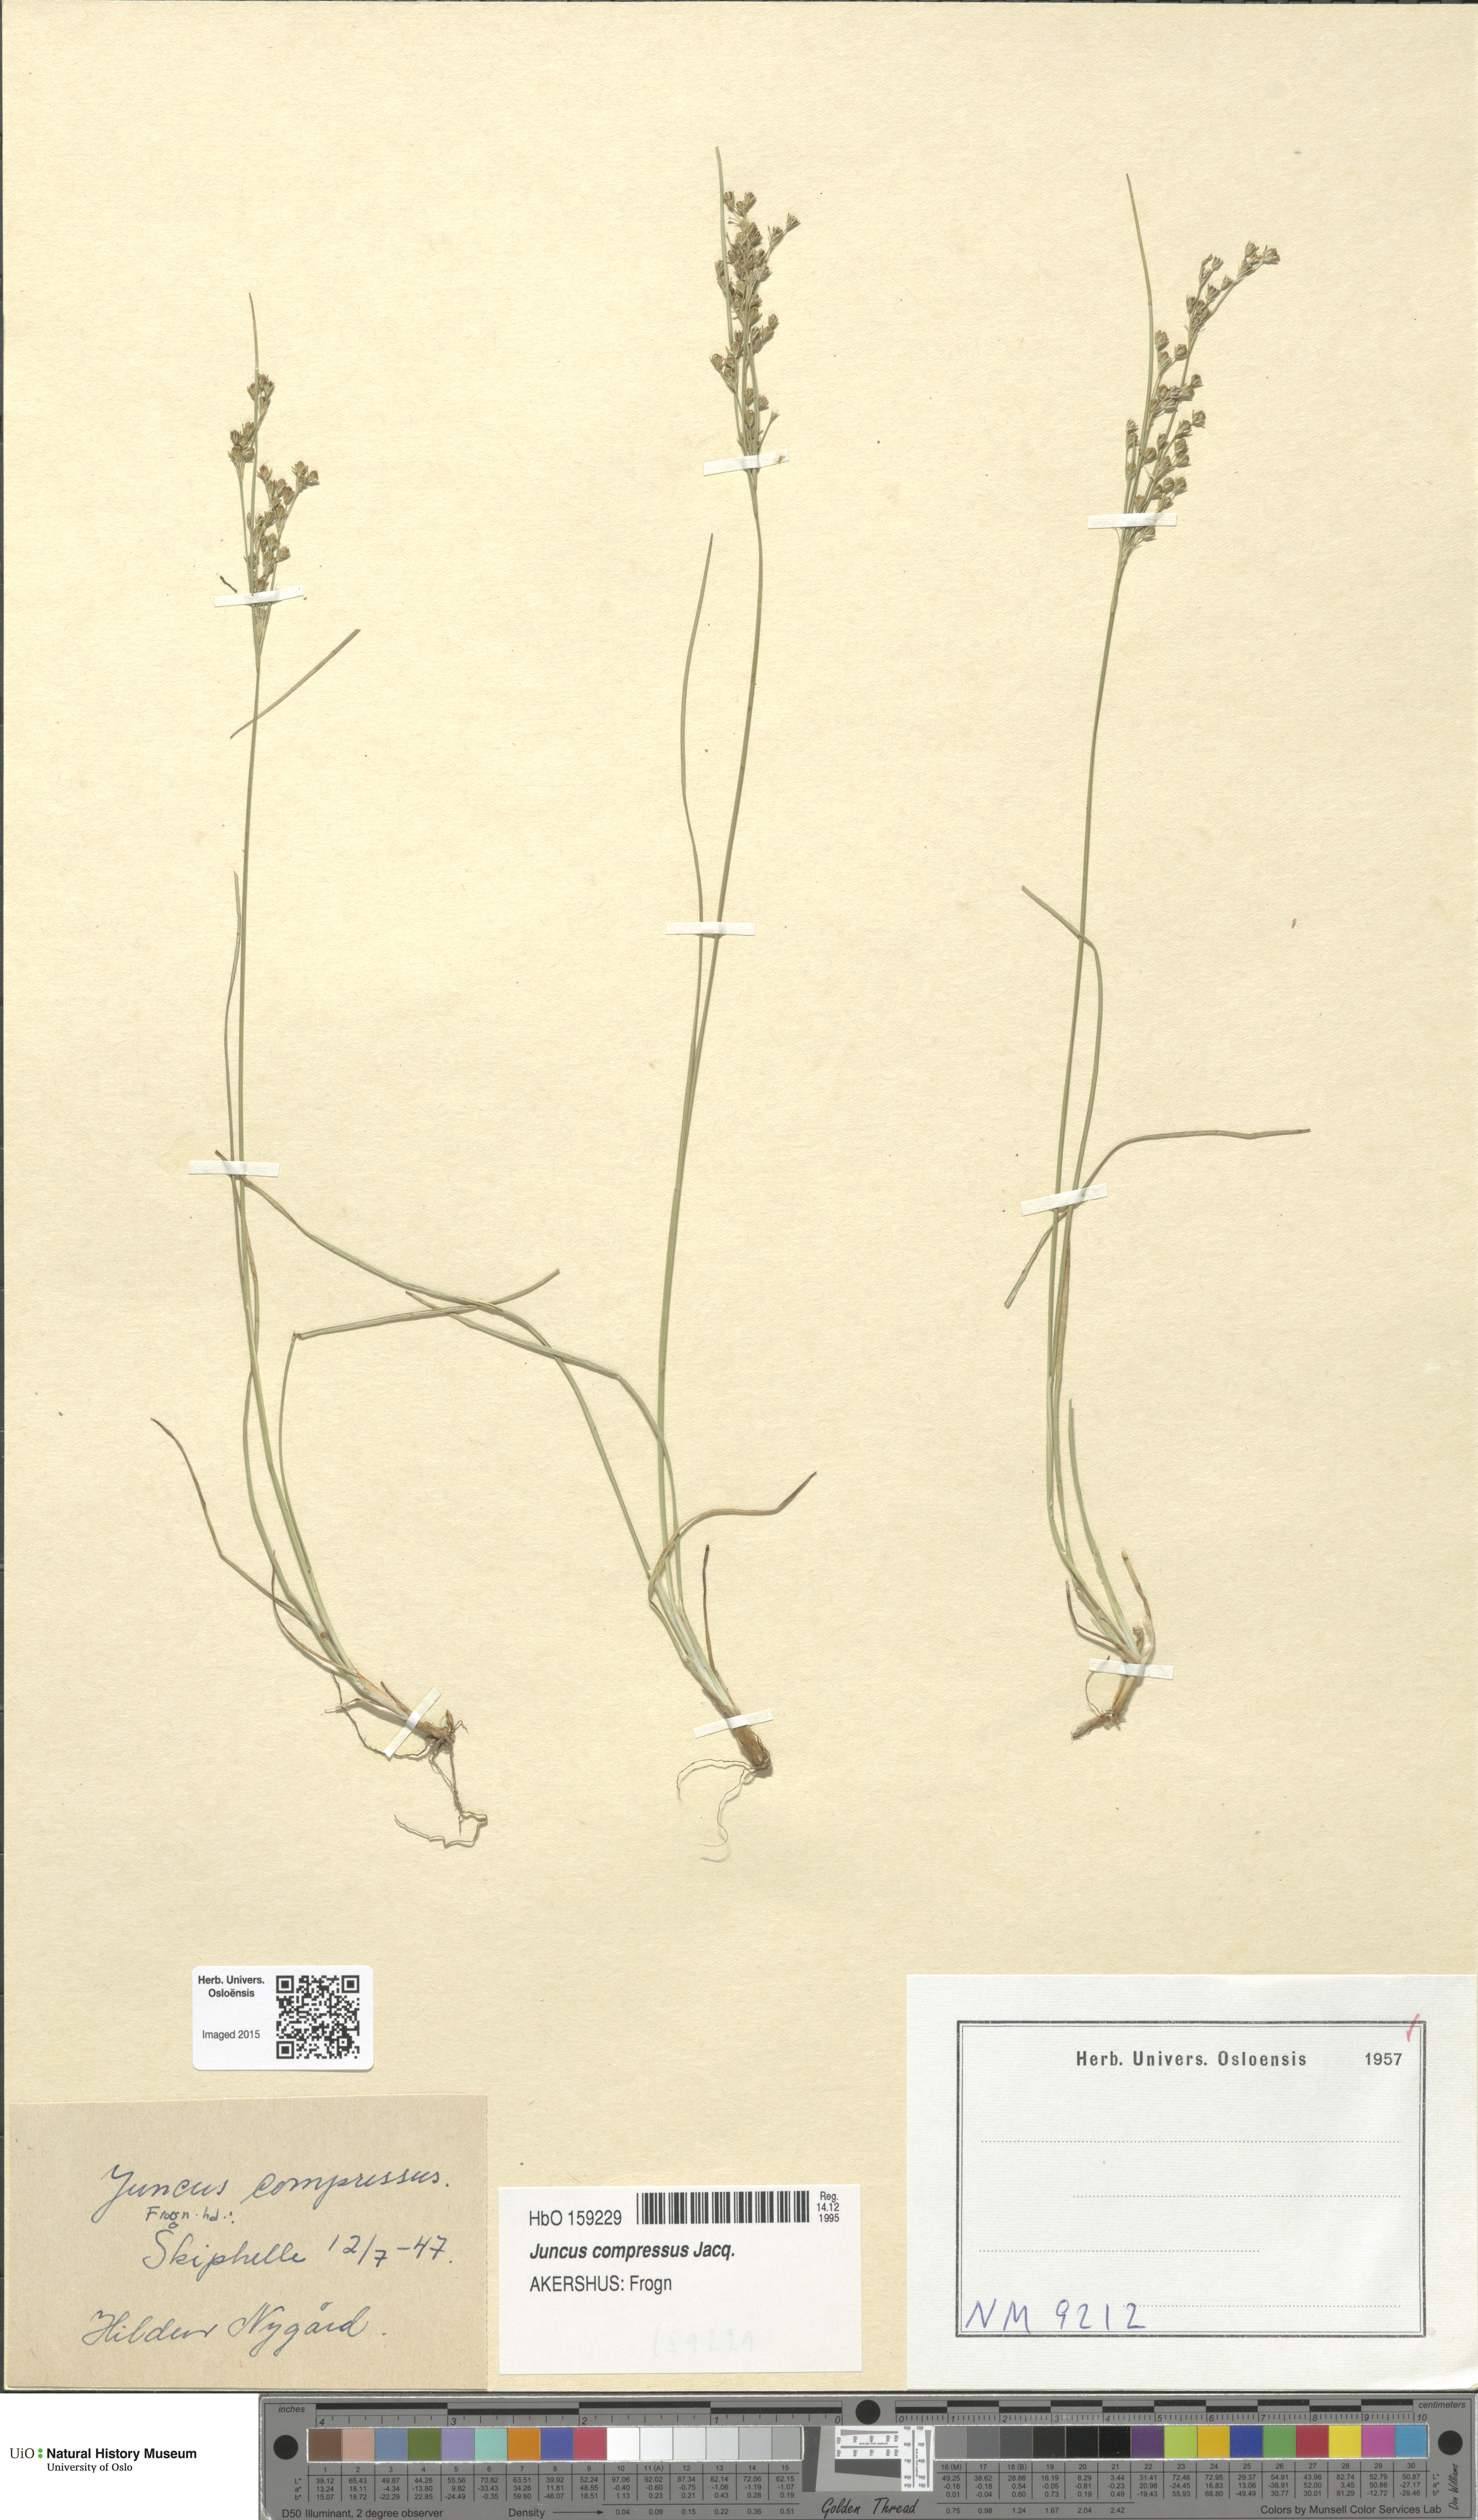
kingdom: Plantae
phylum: Tracheophyta
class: Liliopsida
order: Poales
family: Juncaceae
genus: Juncus
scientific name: Juncus compressus
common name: Round-fruited rush
